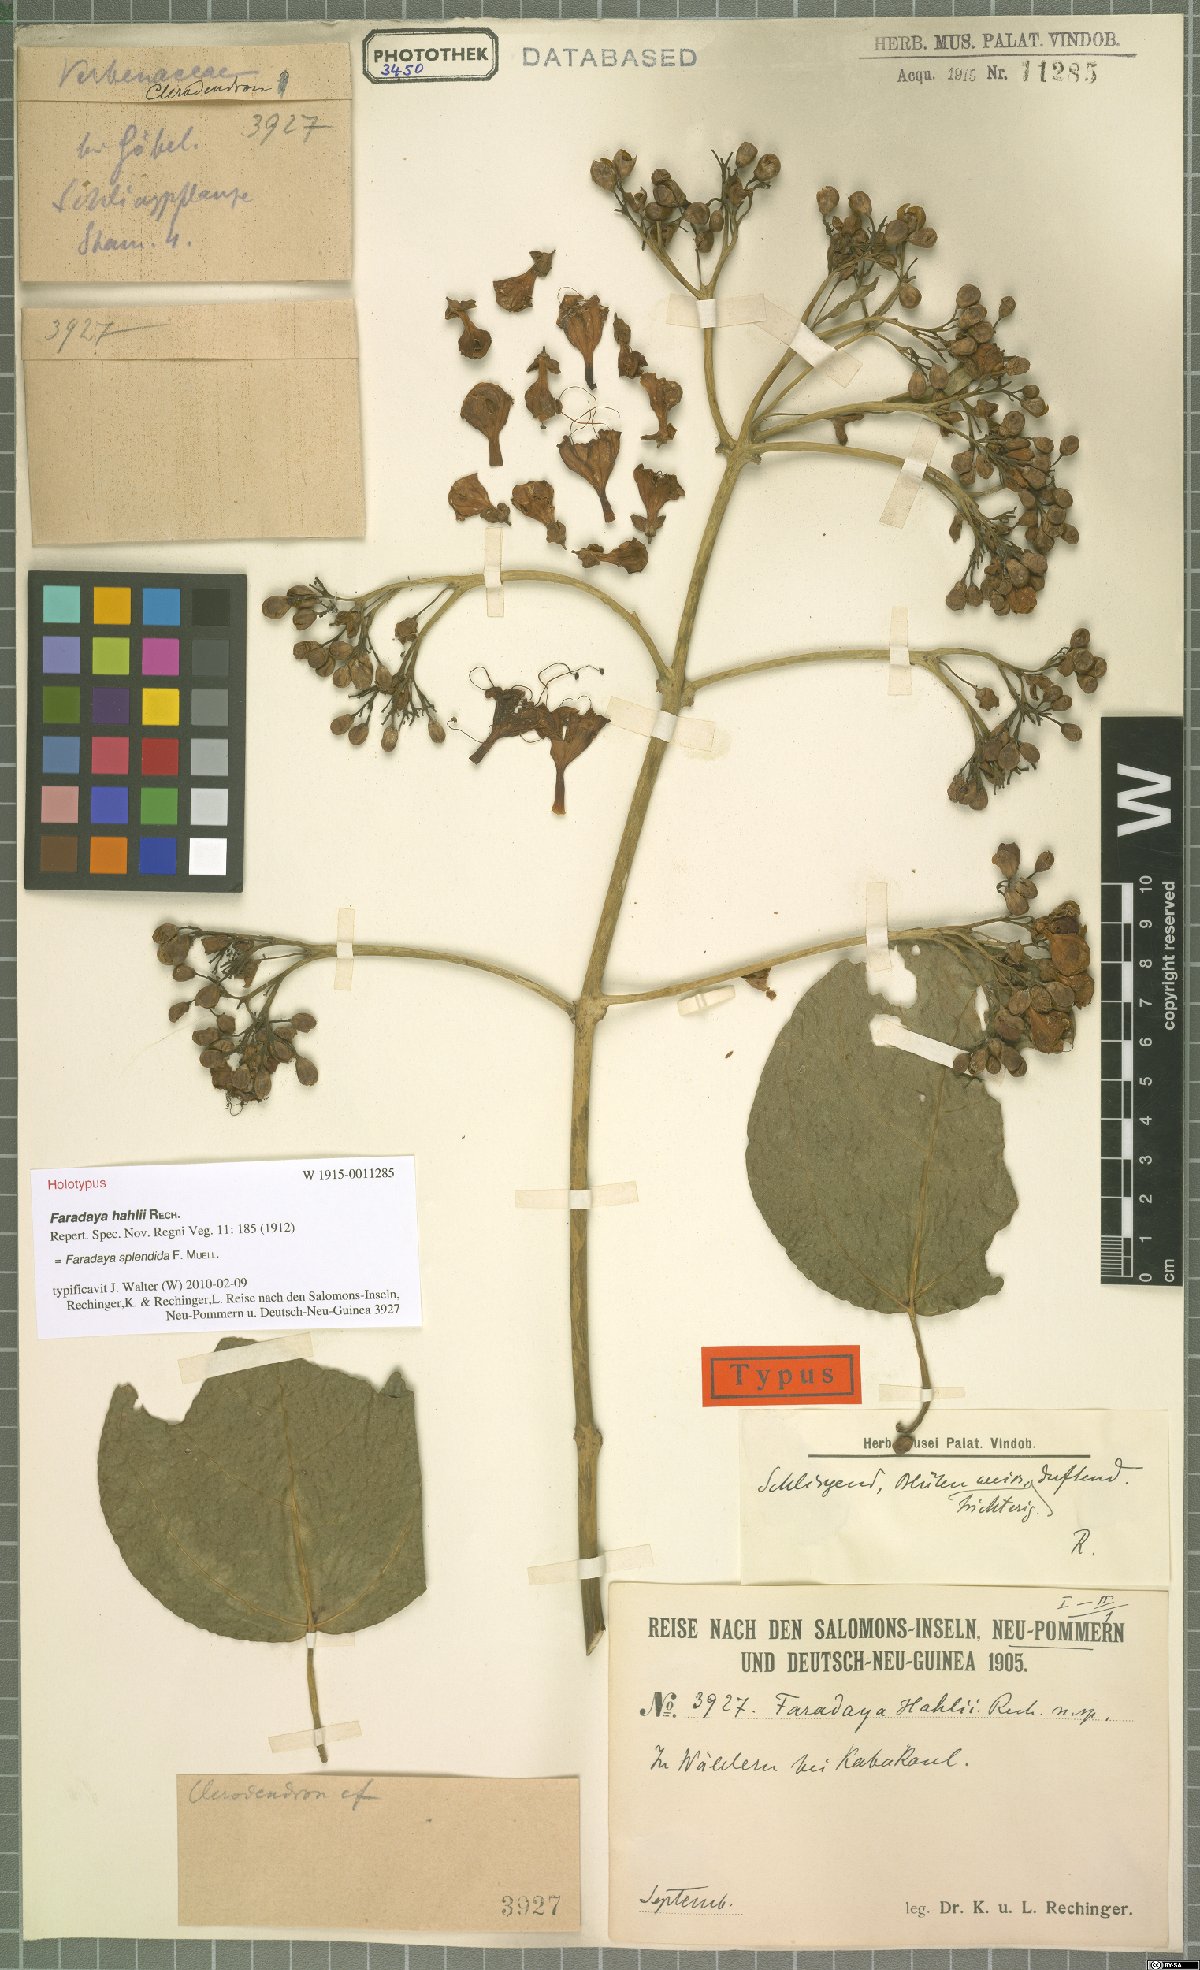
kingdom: Plantae
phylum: Tracheophyta
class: Magnoliopsida
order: Lamiales
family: Lamiaceae
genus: Oxera
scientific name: Oxera splendida
